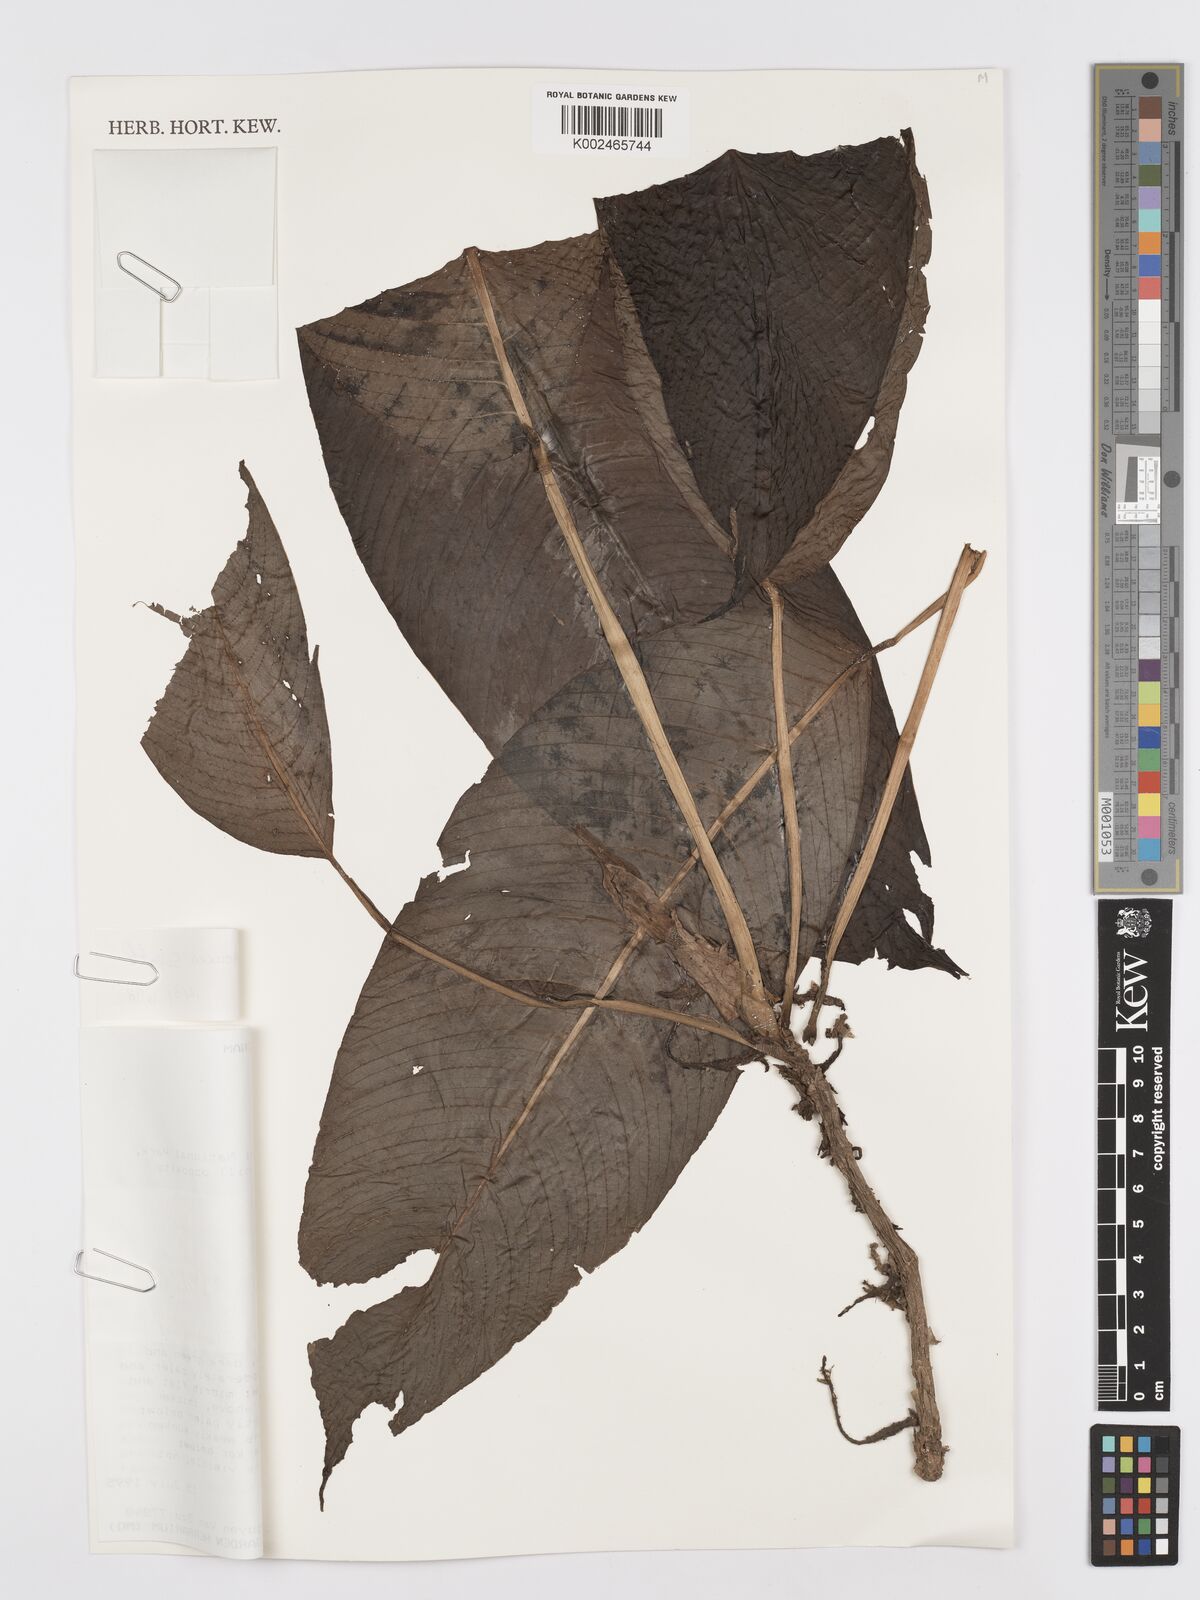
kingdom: Plantae
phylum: Tracheophyta
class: Liliopsida
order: Alismatales
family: Araceae
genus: Rhaphidophora
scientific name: Rhaphidophora
